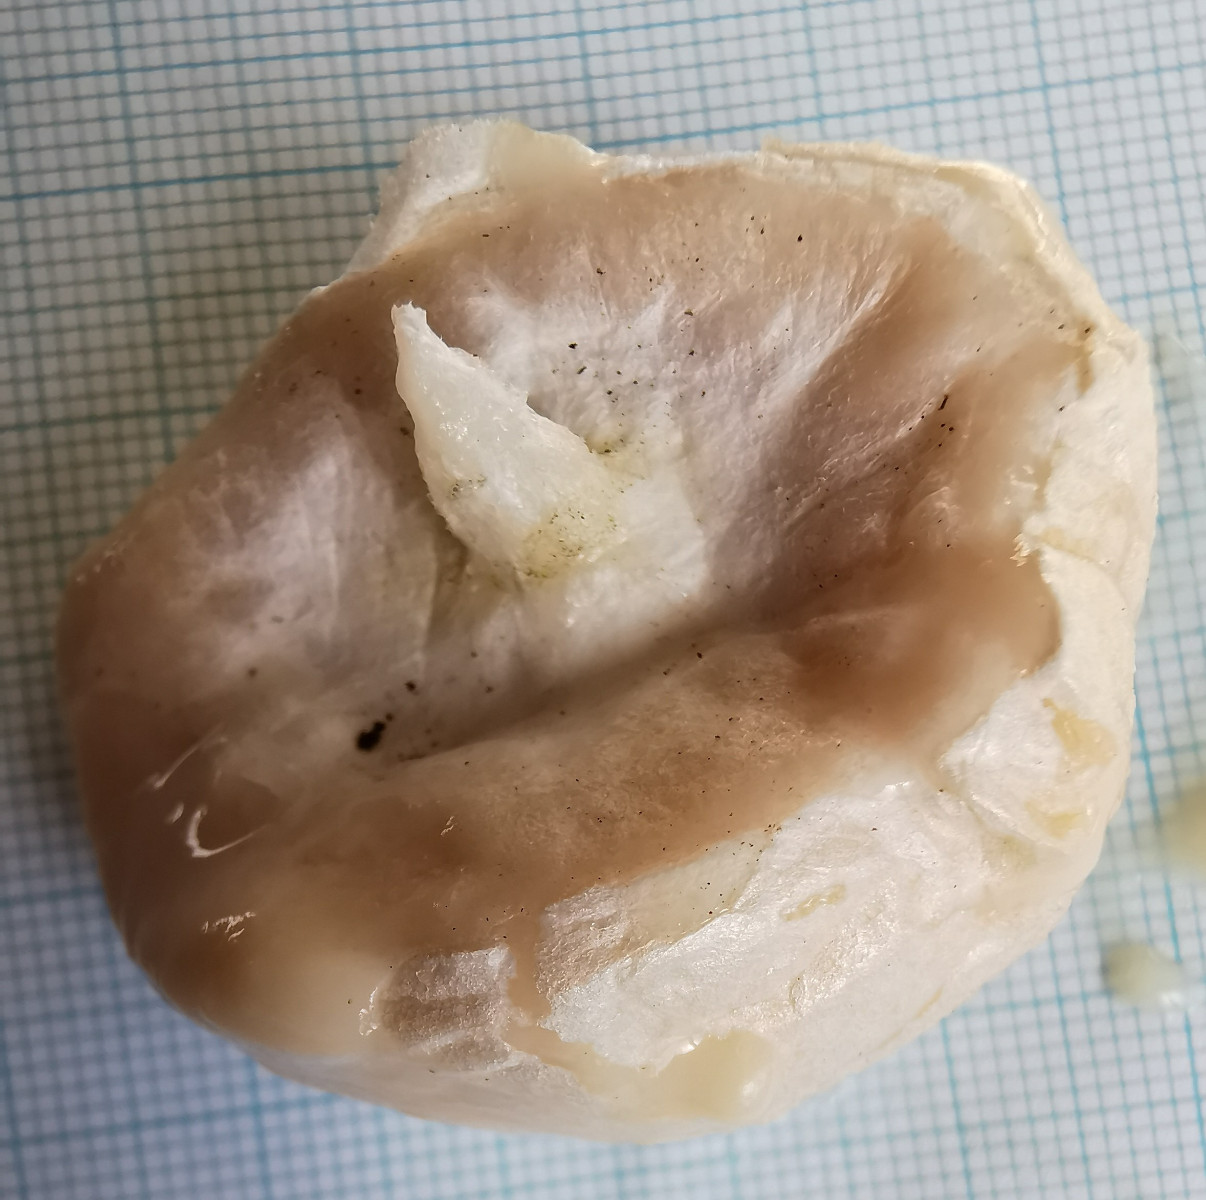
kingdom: Protozoa
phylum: Mycetozoa
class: Myxomycetes
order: Cribrariales
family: Tubiferaceae
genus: Reticularia
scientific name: Reticularia lycoperdon
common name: skinnende støvpude
